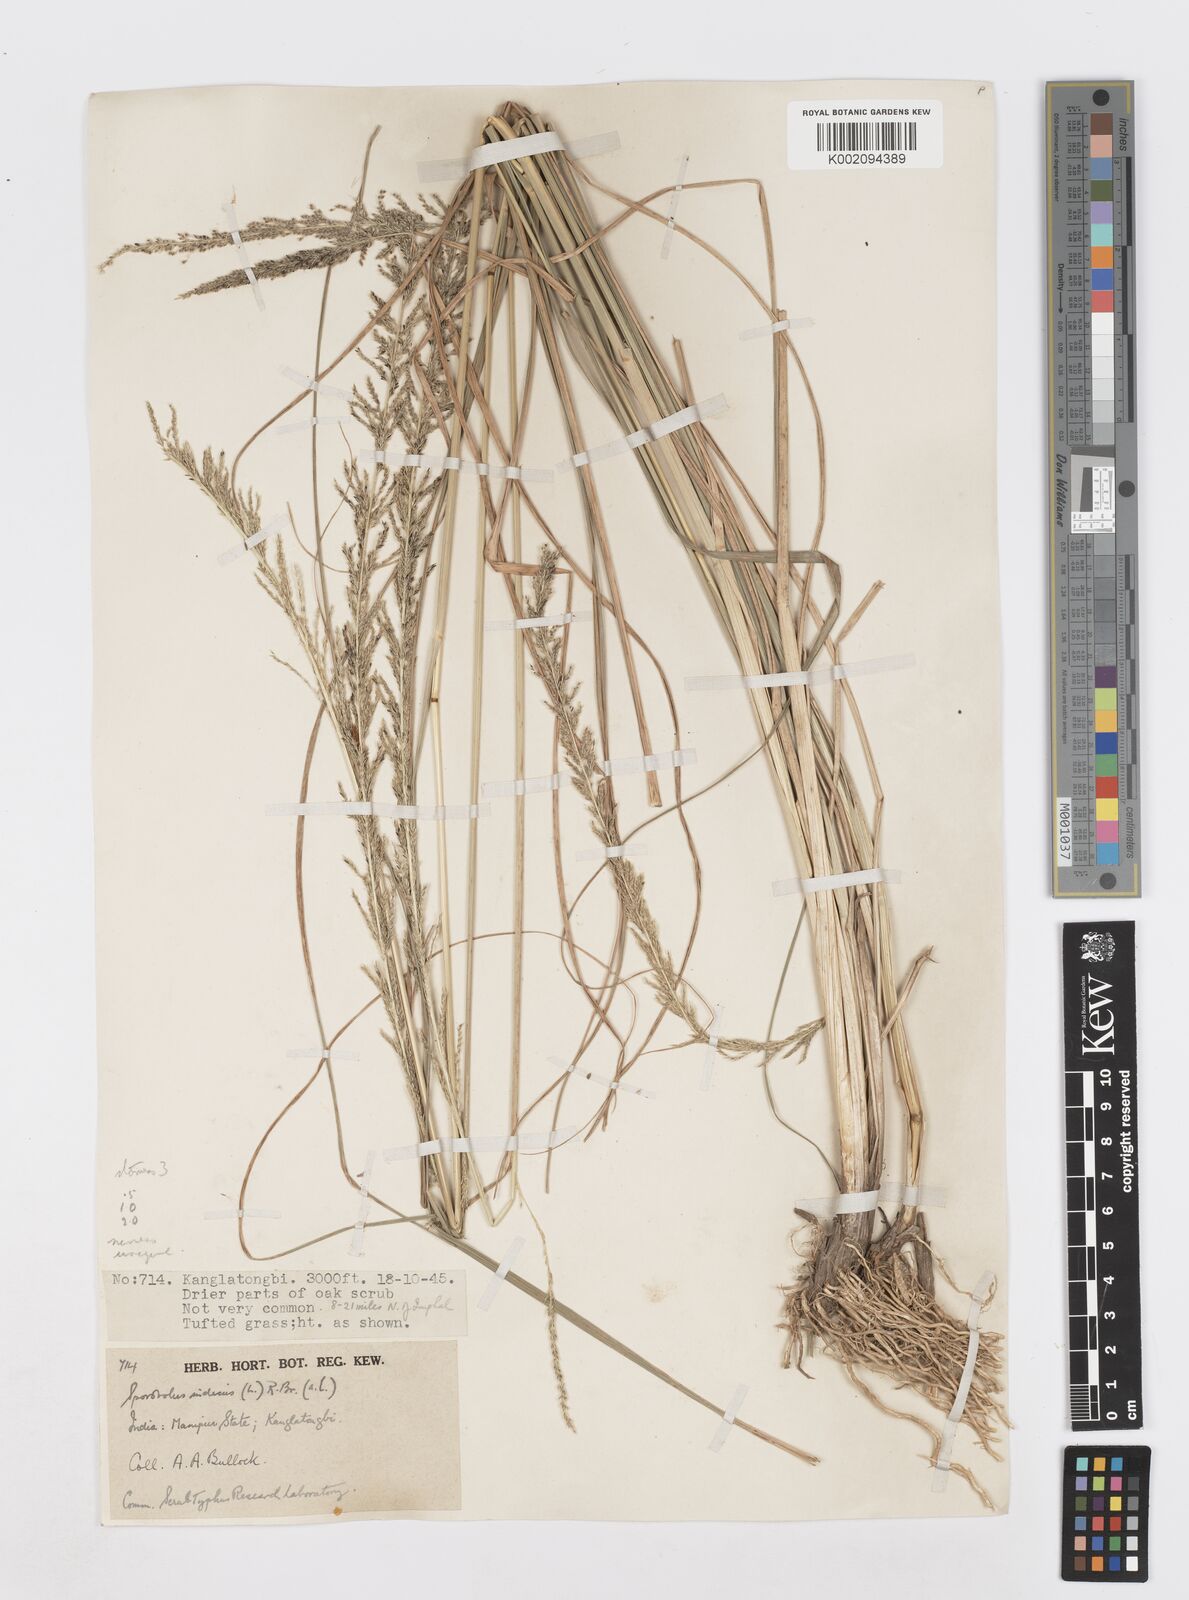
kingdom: Plantae
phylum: Tracheophyta
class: Liliopsida
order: Poales
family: Poaceae
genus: Sporobolus
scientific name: Sporobolus fertilis
